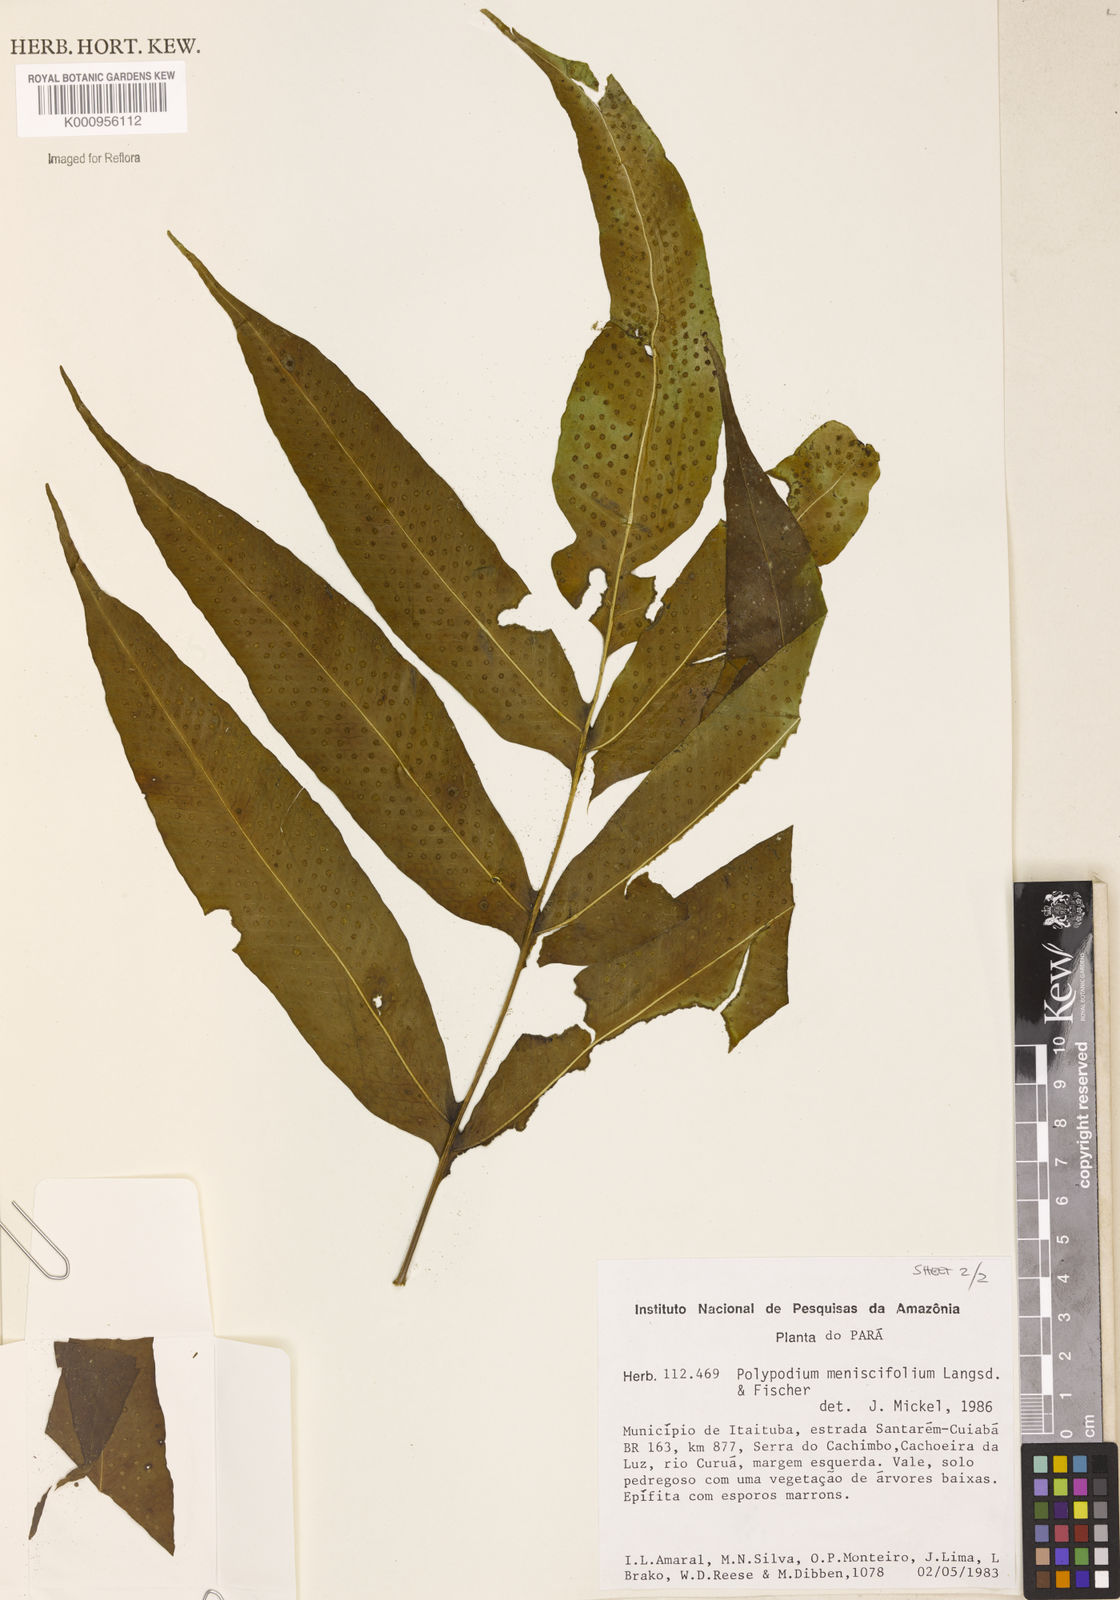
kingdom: Plantae
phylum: Tracheophyta
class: Polypodiopsida
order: Polypodiales
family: Polypodiaceae
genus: Polypodium
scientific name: Polypodium
